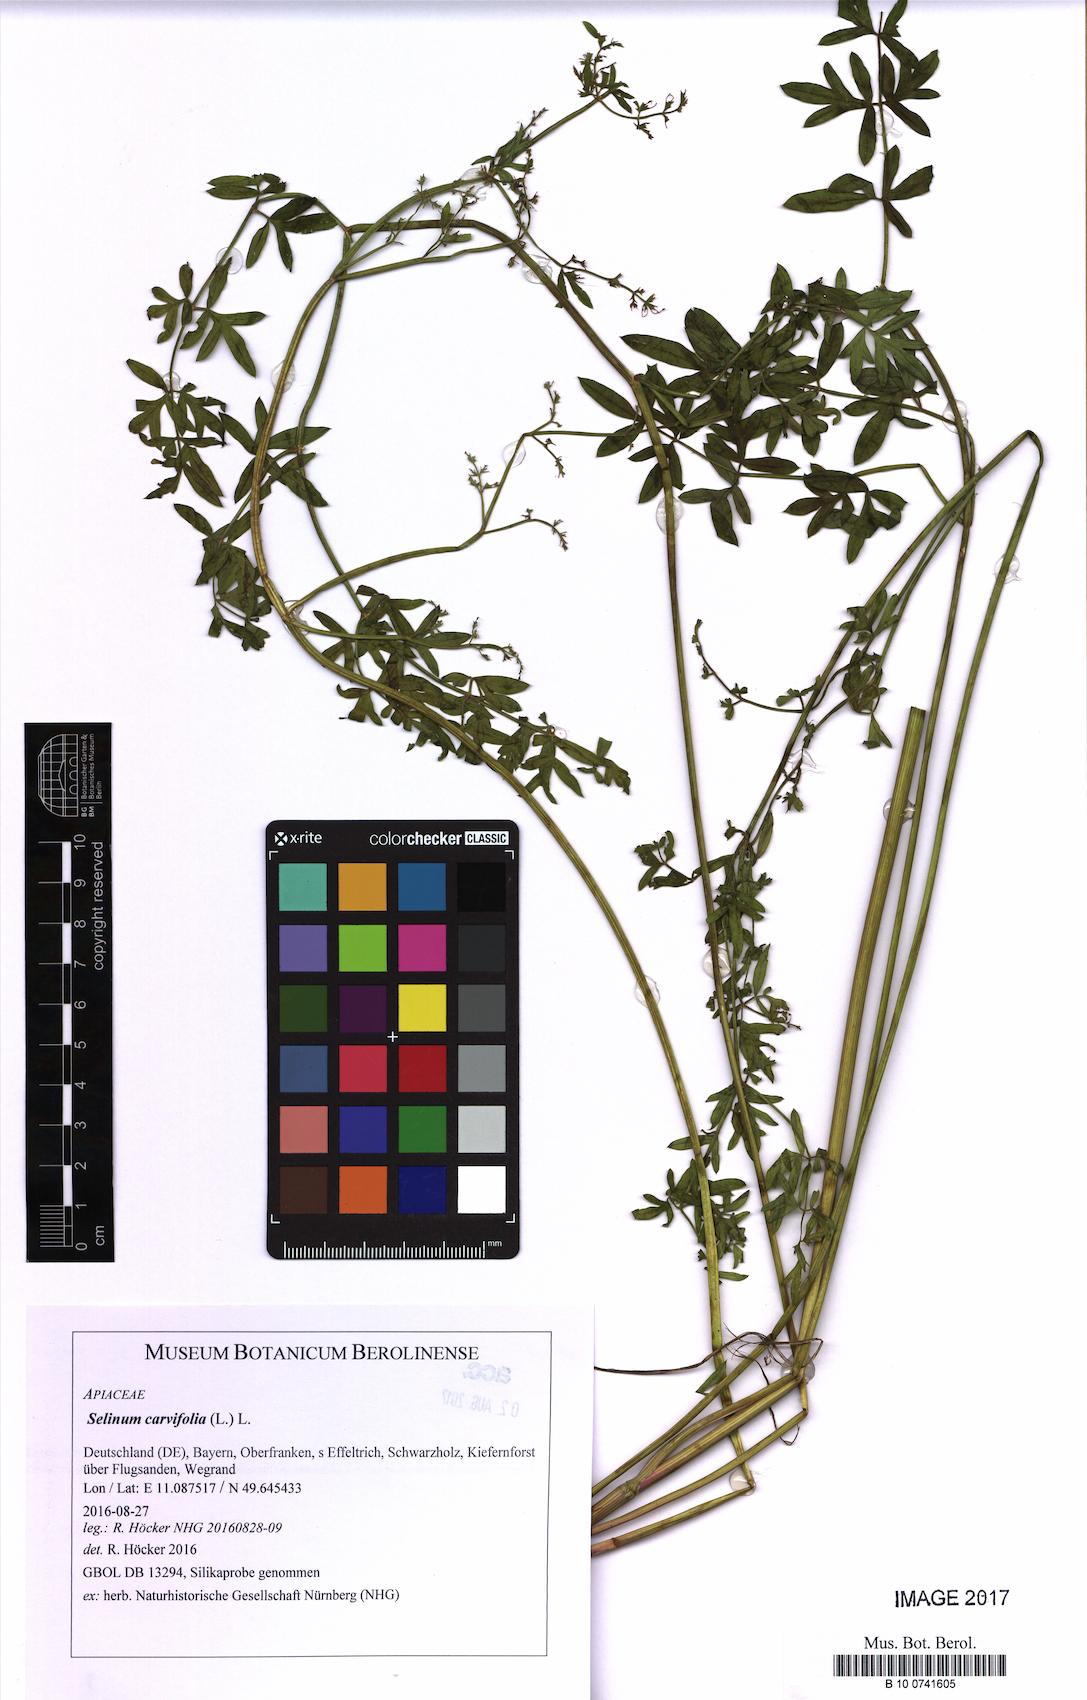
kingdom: Plantae
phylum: Tracheophyta
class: Magnoliopsida
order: Apiales
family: Apiaceae
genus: Selinum
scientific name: Selinum carvifolia
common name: Cambridge milk-parsley
